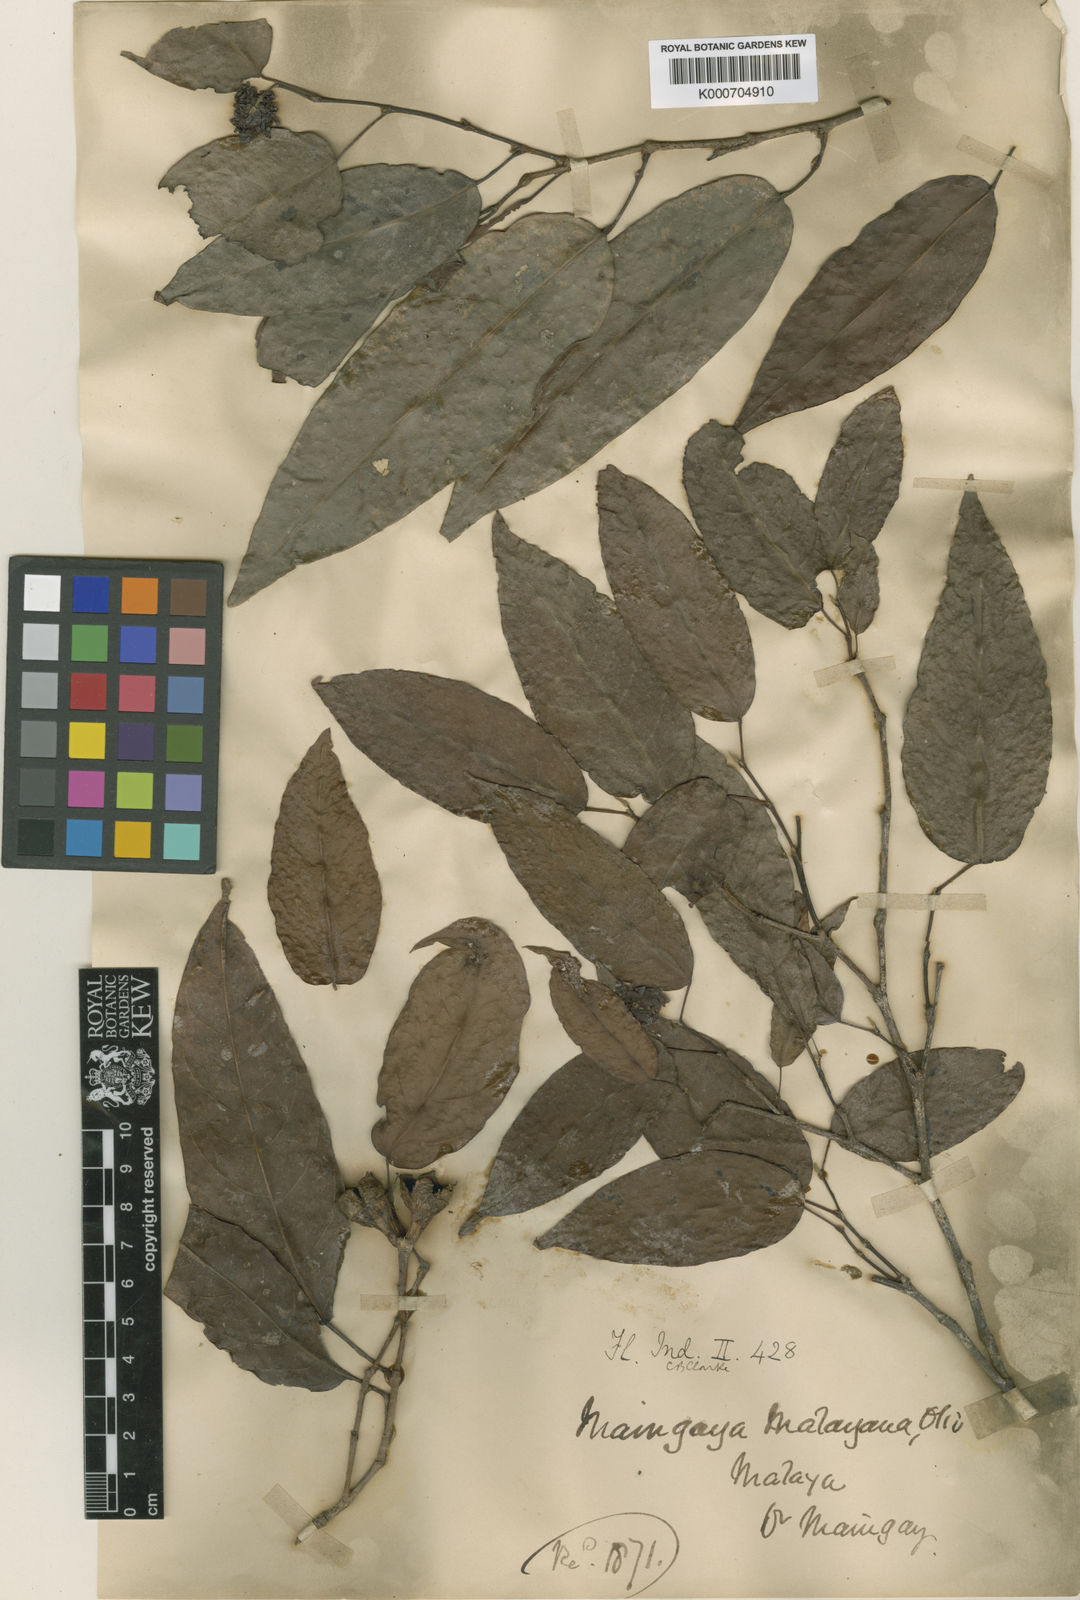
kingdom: Plantae
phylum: Tracheophyta
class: Magnoliopsida
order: Saxifragales
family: Hamamelidaceae
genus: Maingaya
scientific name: Maingaya malayana
